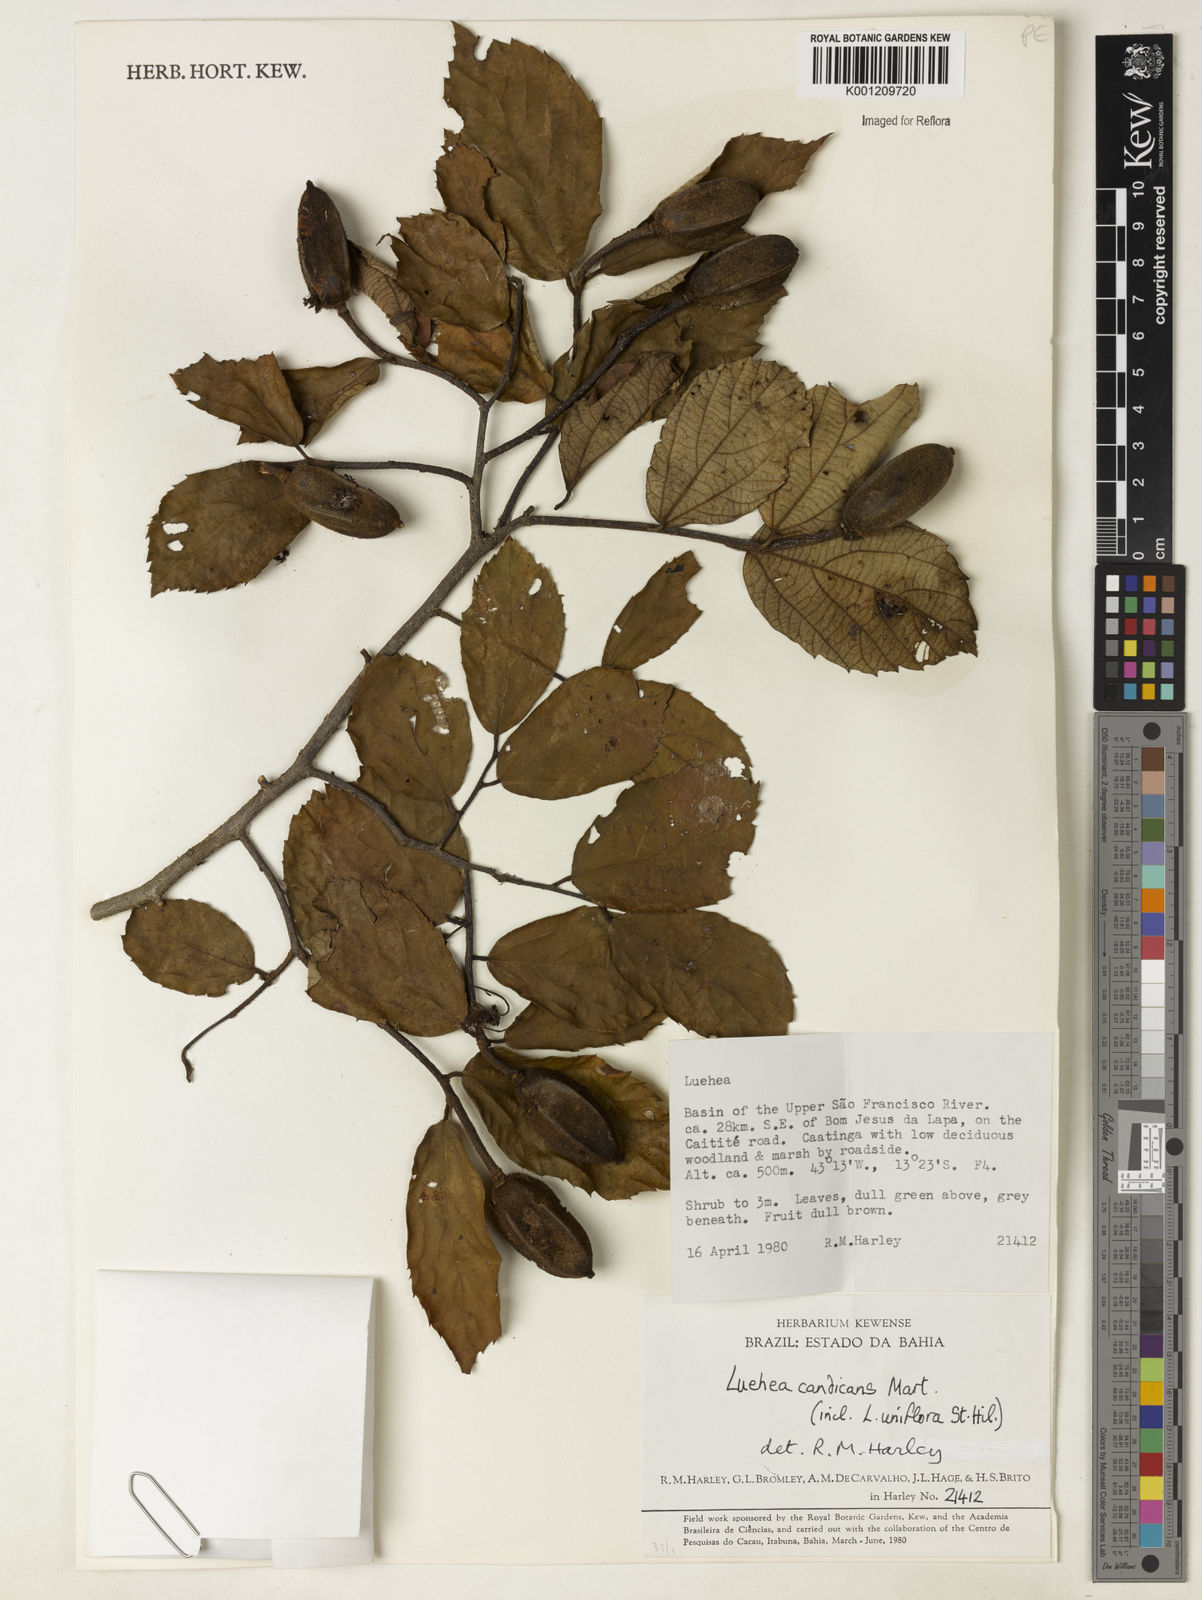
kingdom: Plantae
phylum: Tracheophyta
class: Magnoliopsida
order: Malvales
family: Malvaceae
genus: Luehea
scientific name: Luehea candicans
